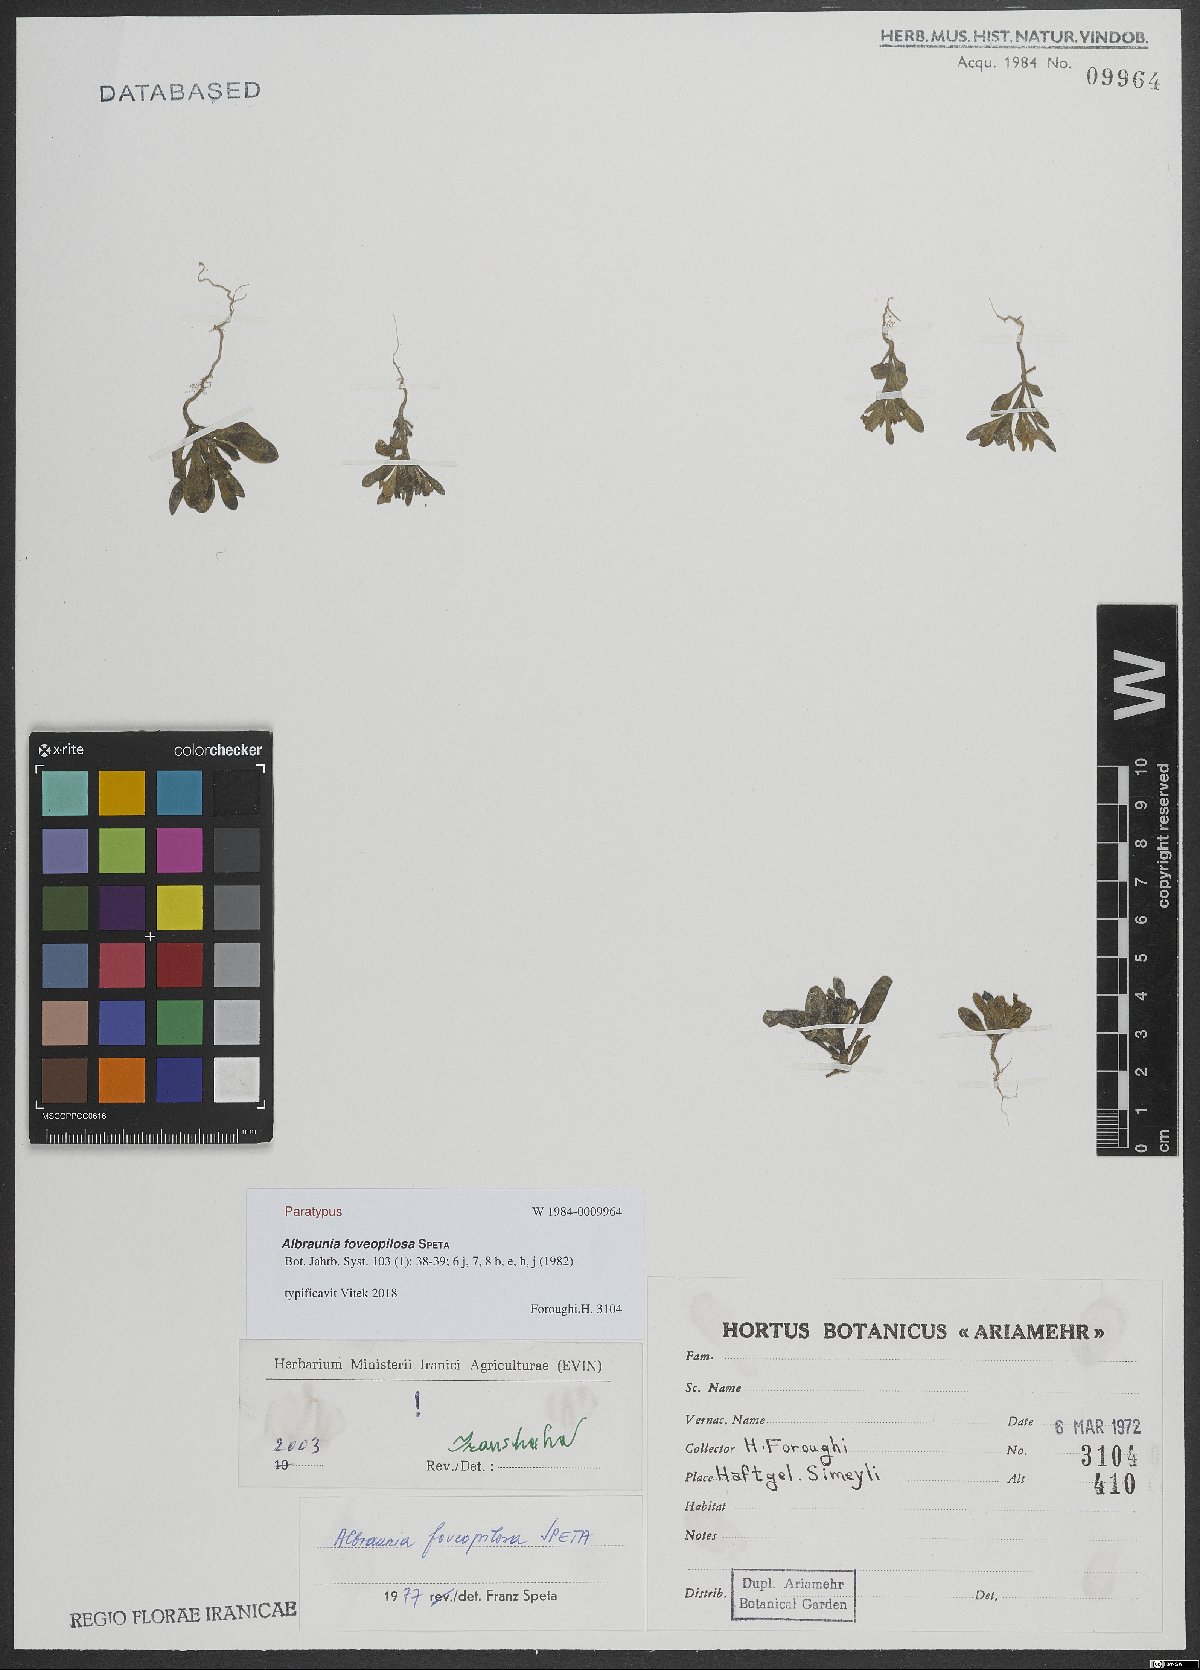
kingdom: Plantae
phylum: Tracheophyta
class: Magnoliopsida
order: Lamiales
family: Plantaginaceae
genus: Albraunia
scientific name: Albraunia foveopilosa
